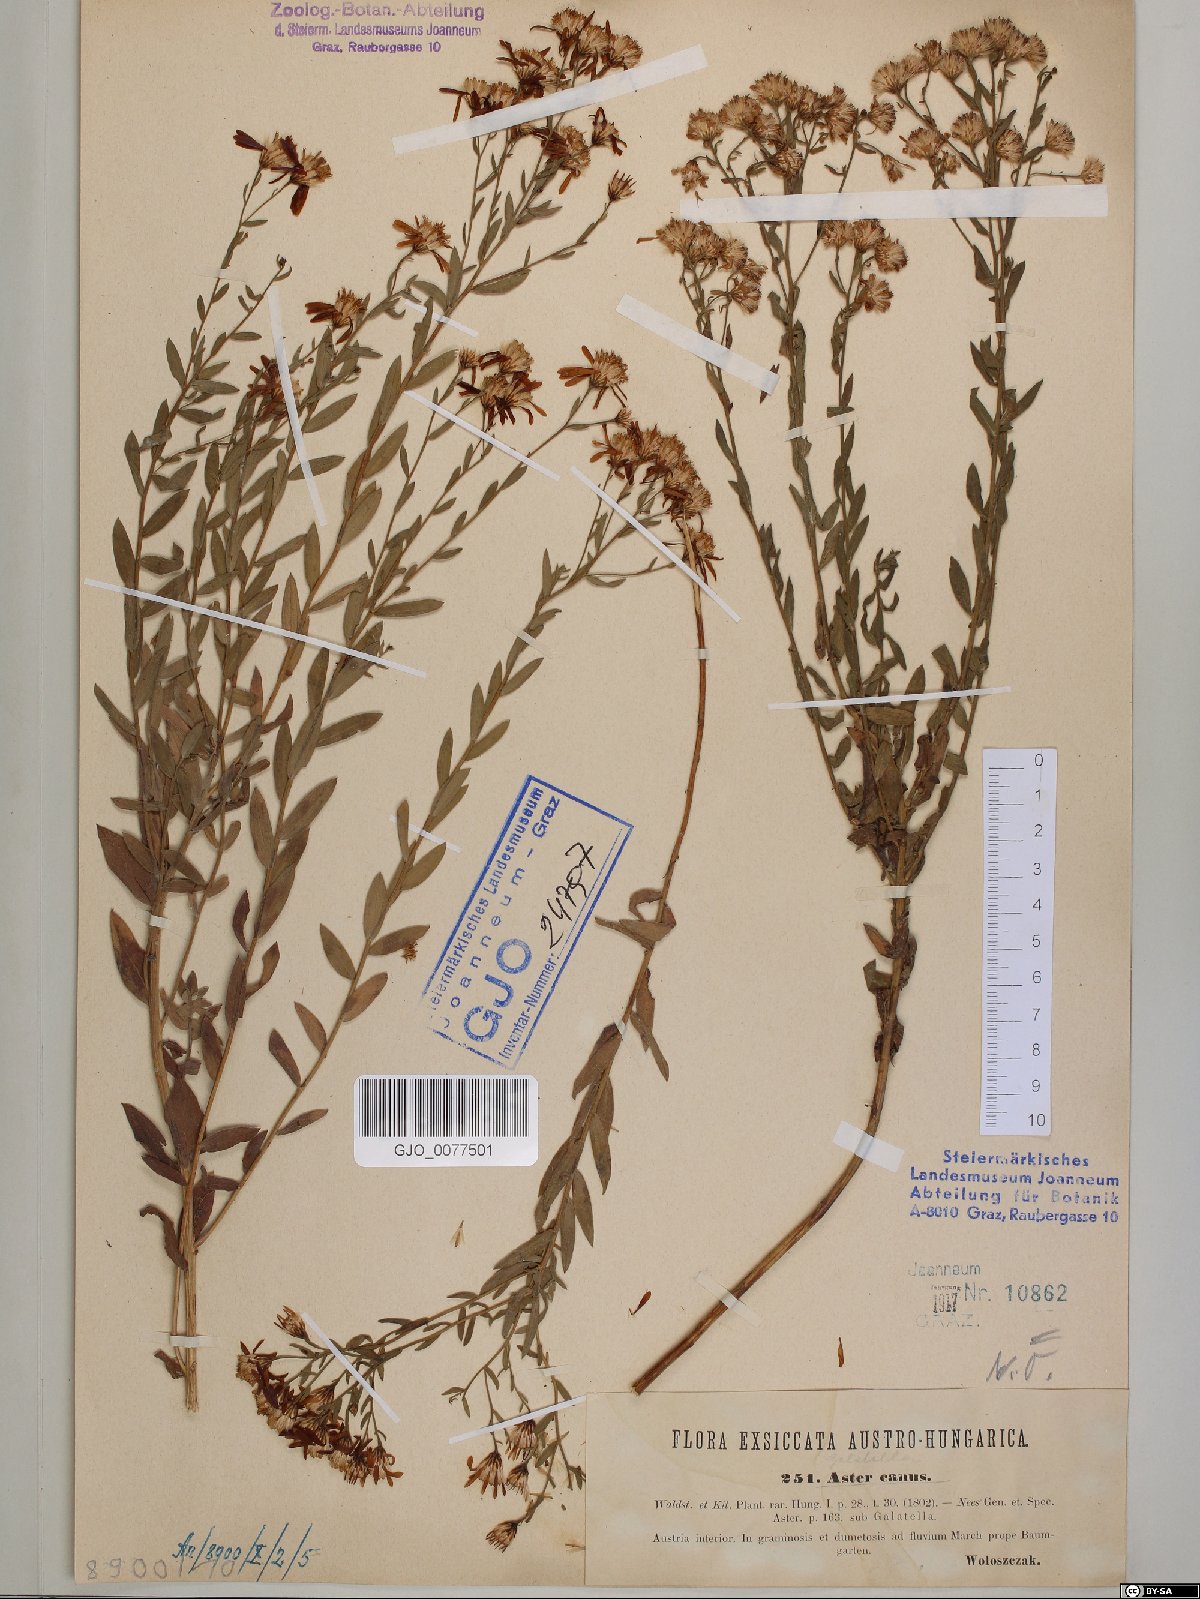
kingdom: Plantae
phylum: Tracheophyta
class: Magnoliopsida
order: Asterales
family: Asteraceae
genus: Galatella
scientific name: Galatella cana
